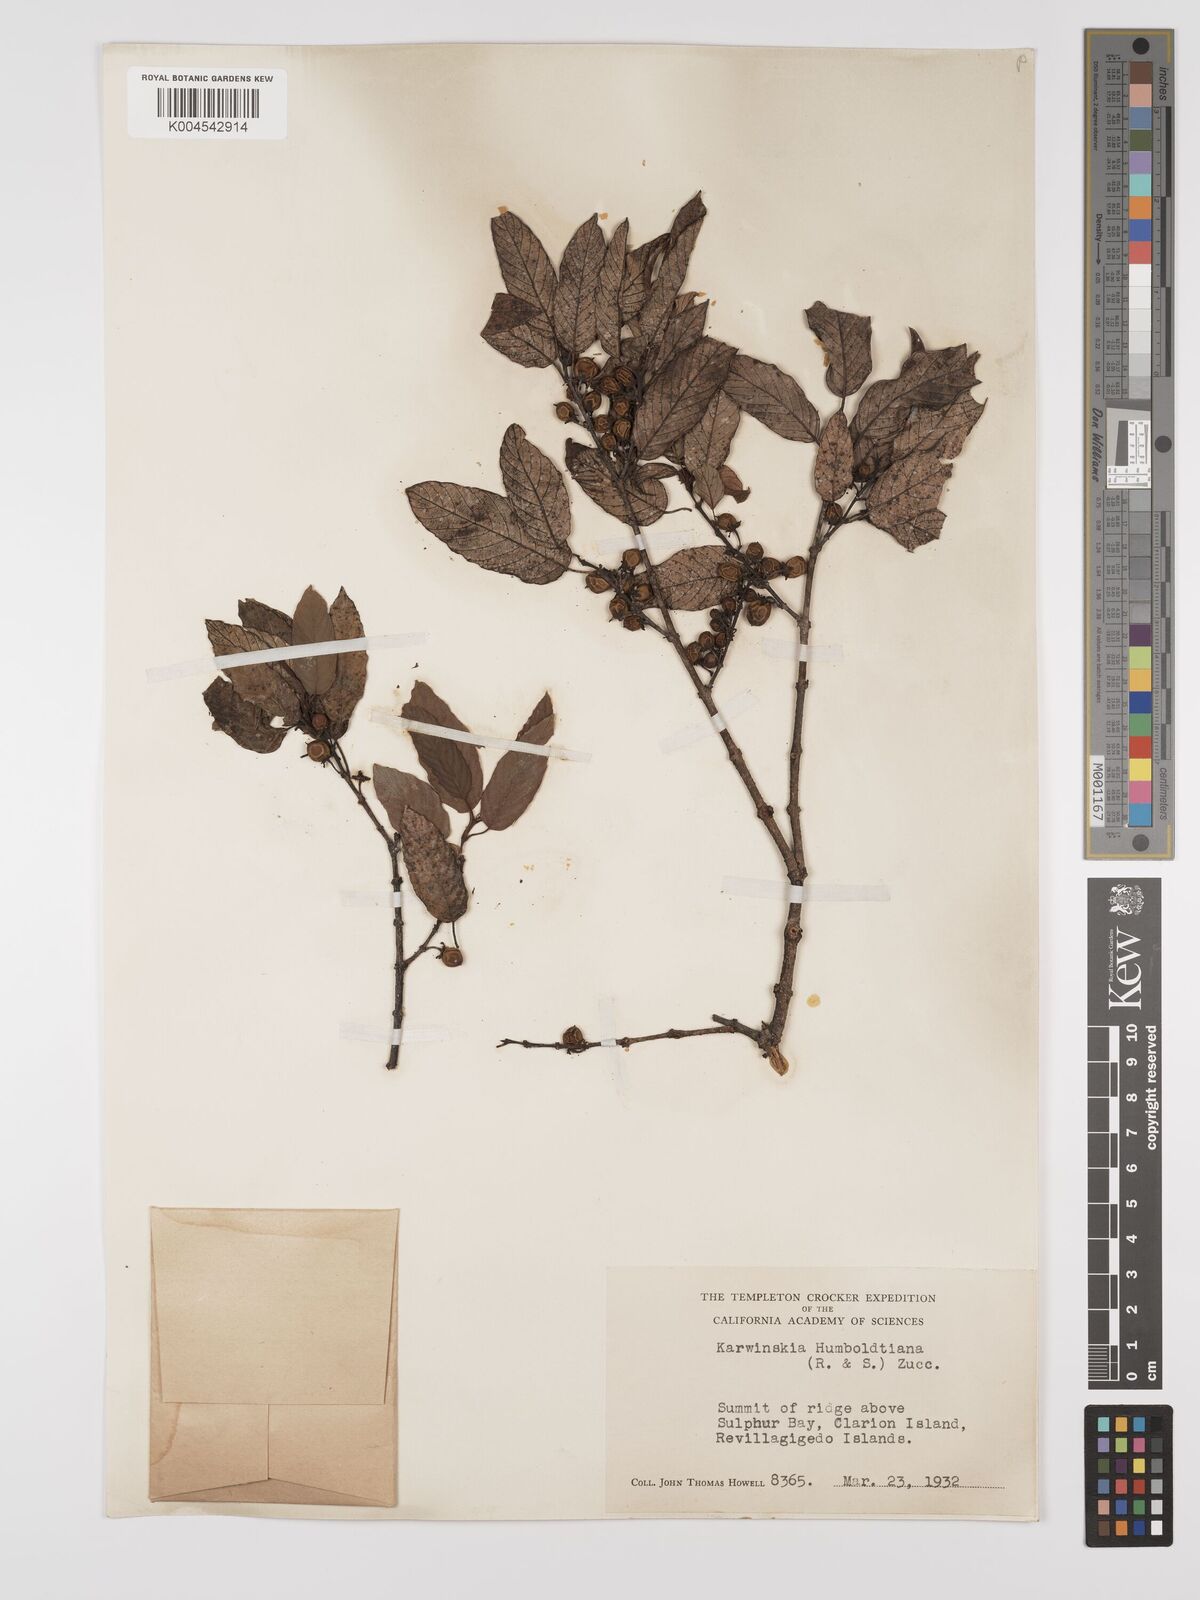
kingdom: Plantae
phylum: Tracheophyta
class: Magnoliopsida
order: Rosales
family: Rhamnaceae
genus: Karwinskia
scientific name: Karwinskia humboldtiana
